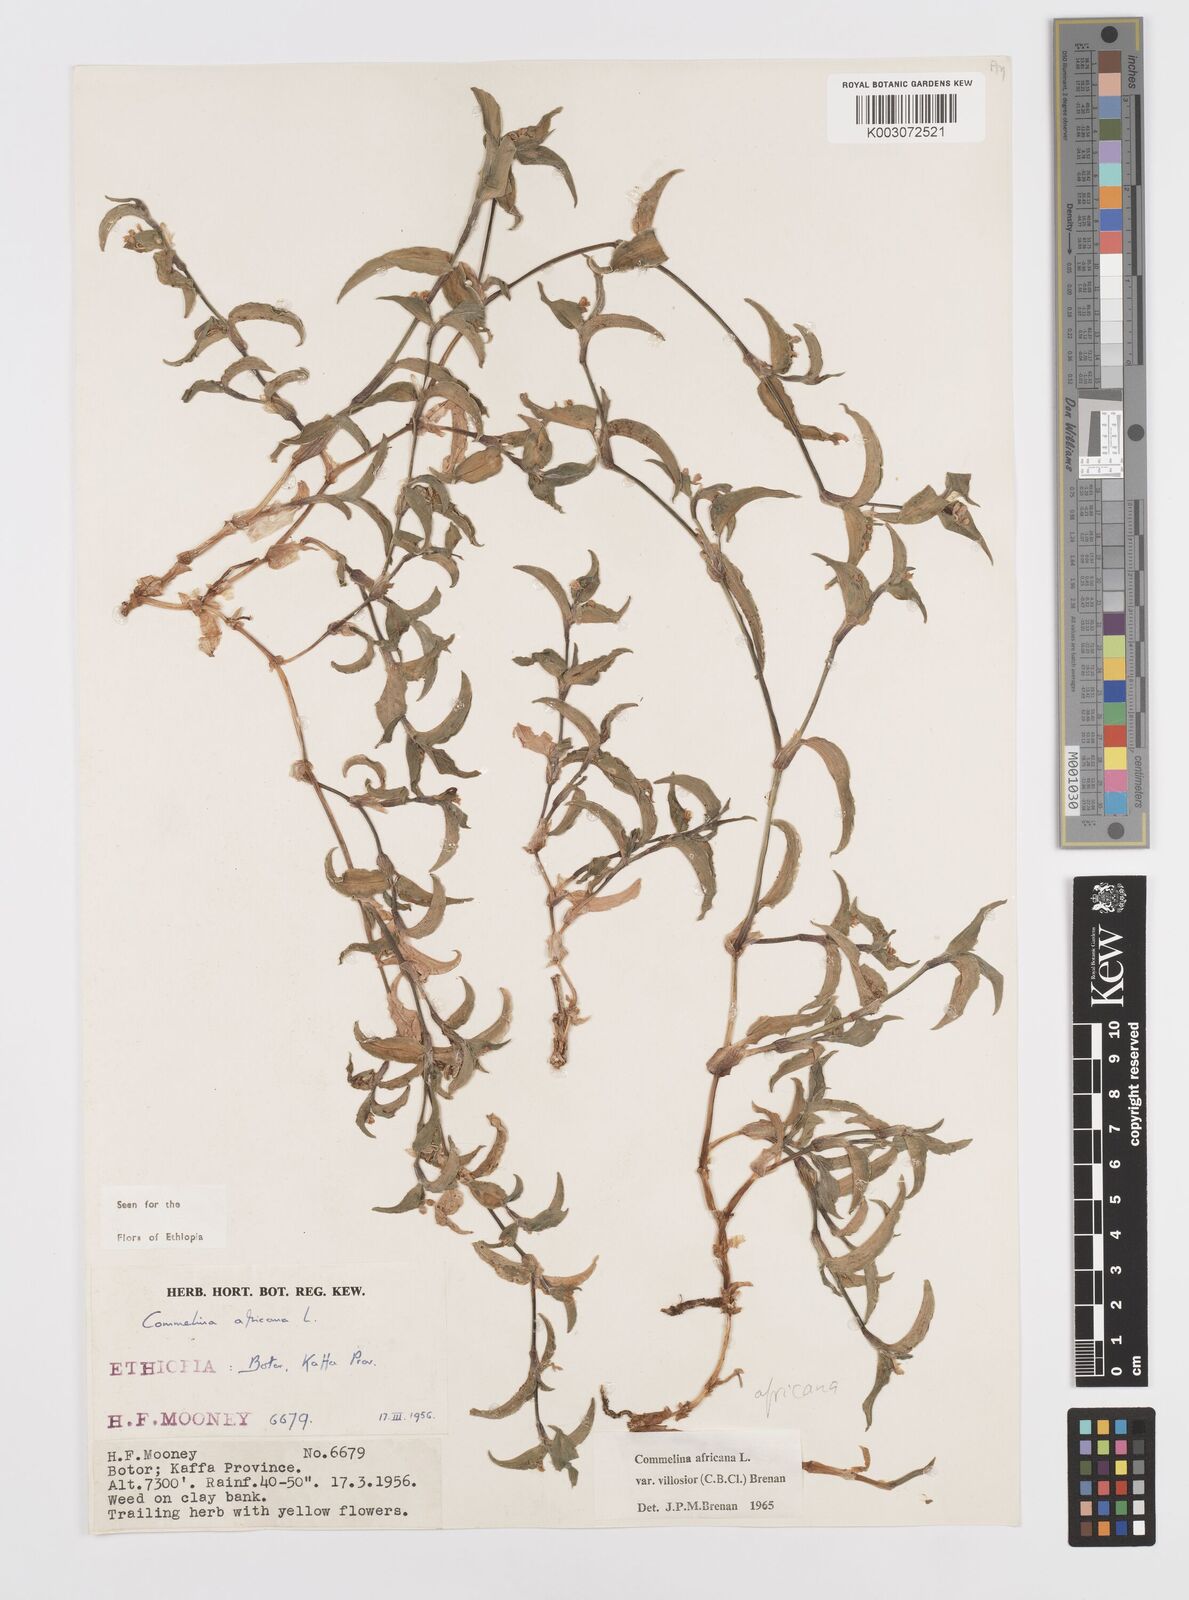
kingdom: Plantae
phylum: Tracheophyta
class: Liliopsida
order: Commelinales
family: Commelinaceae
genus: Commelina
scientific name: Commelina africana
